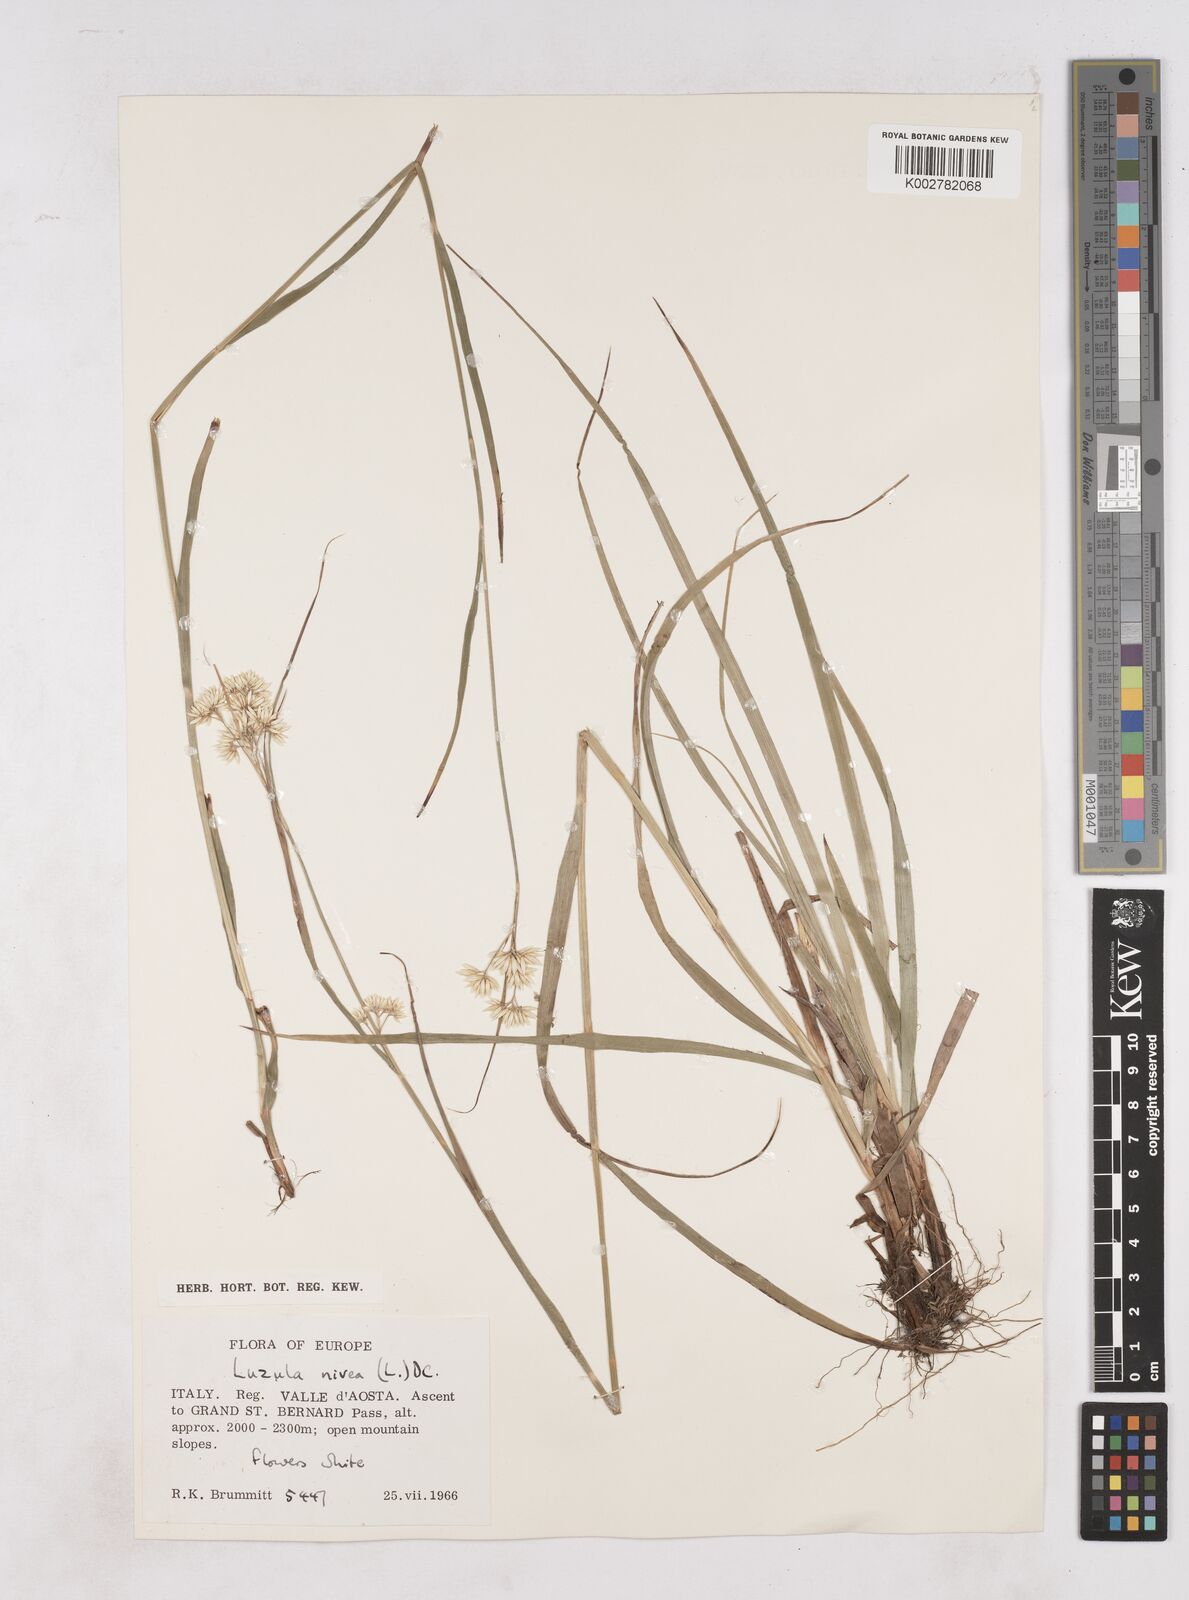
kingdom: Plantae
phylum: Tracheophyta
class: Liliopsida
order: Poales
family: Juncaceae
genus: Luzula
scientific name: Luzula nivea
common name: Snow-white wood-rush
